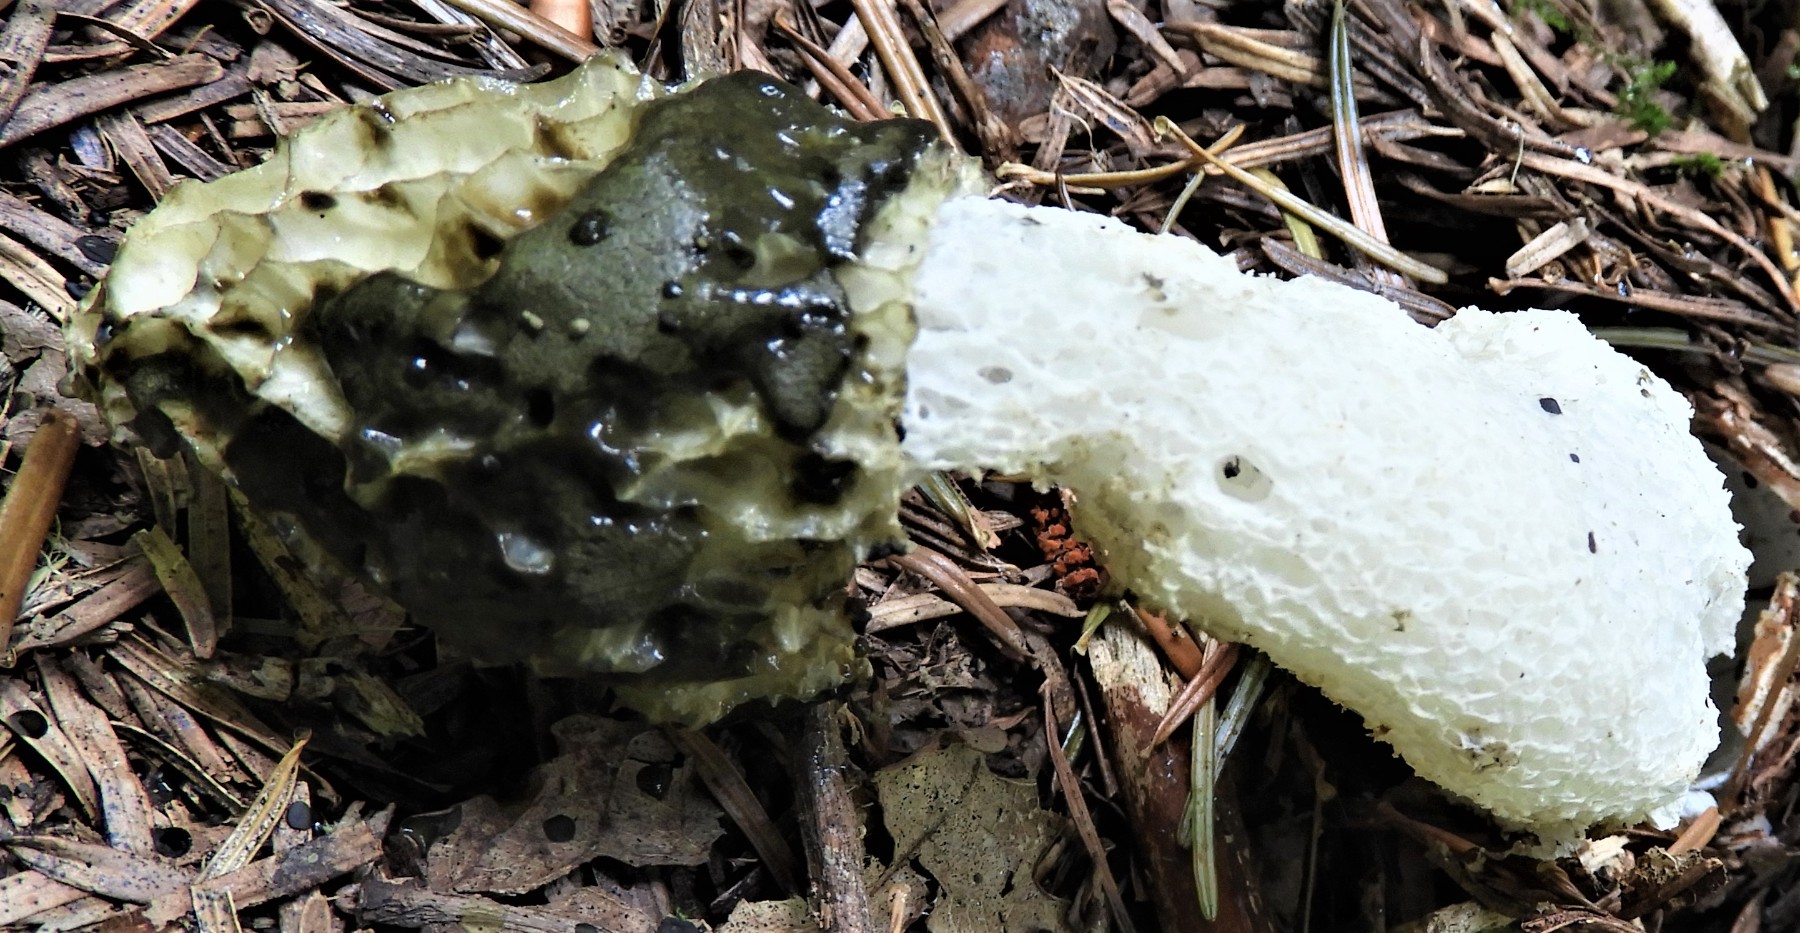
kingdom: Fungi
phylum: Basidiomycota
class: Agaricomycetes
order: Phallales
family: Phallaceae
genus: Phallus
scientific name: Phallus impudicus
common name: almindelig stinksvamp
